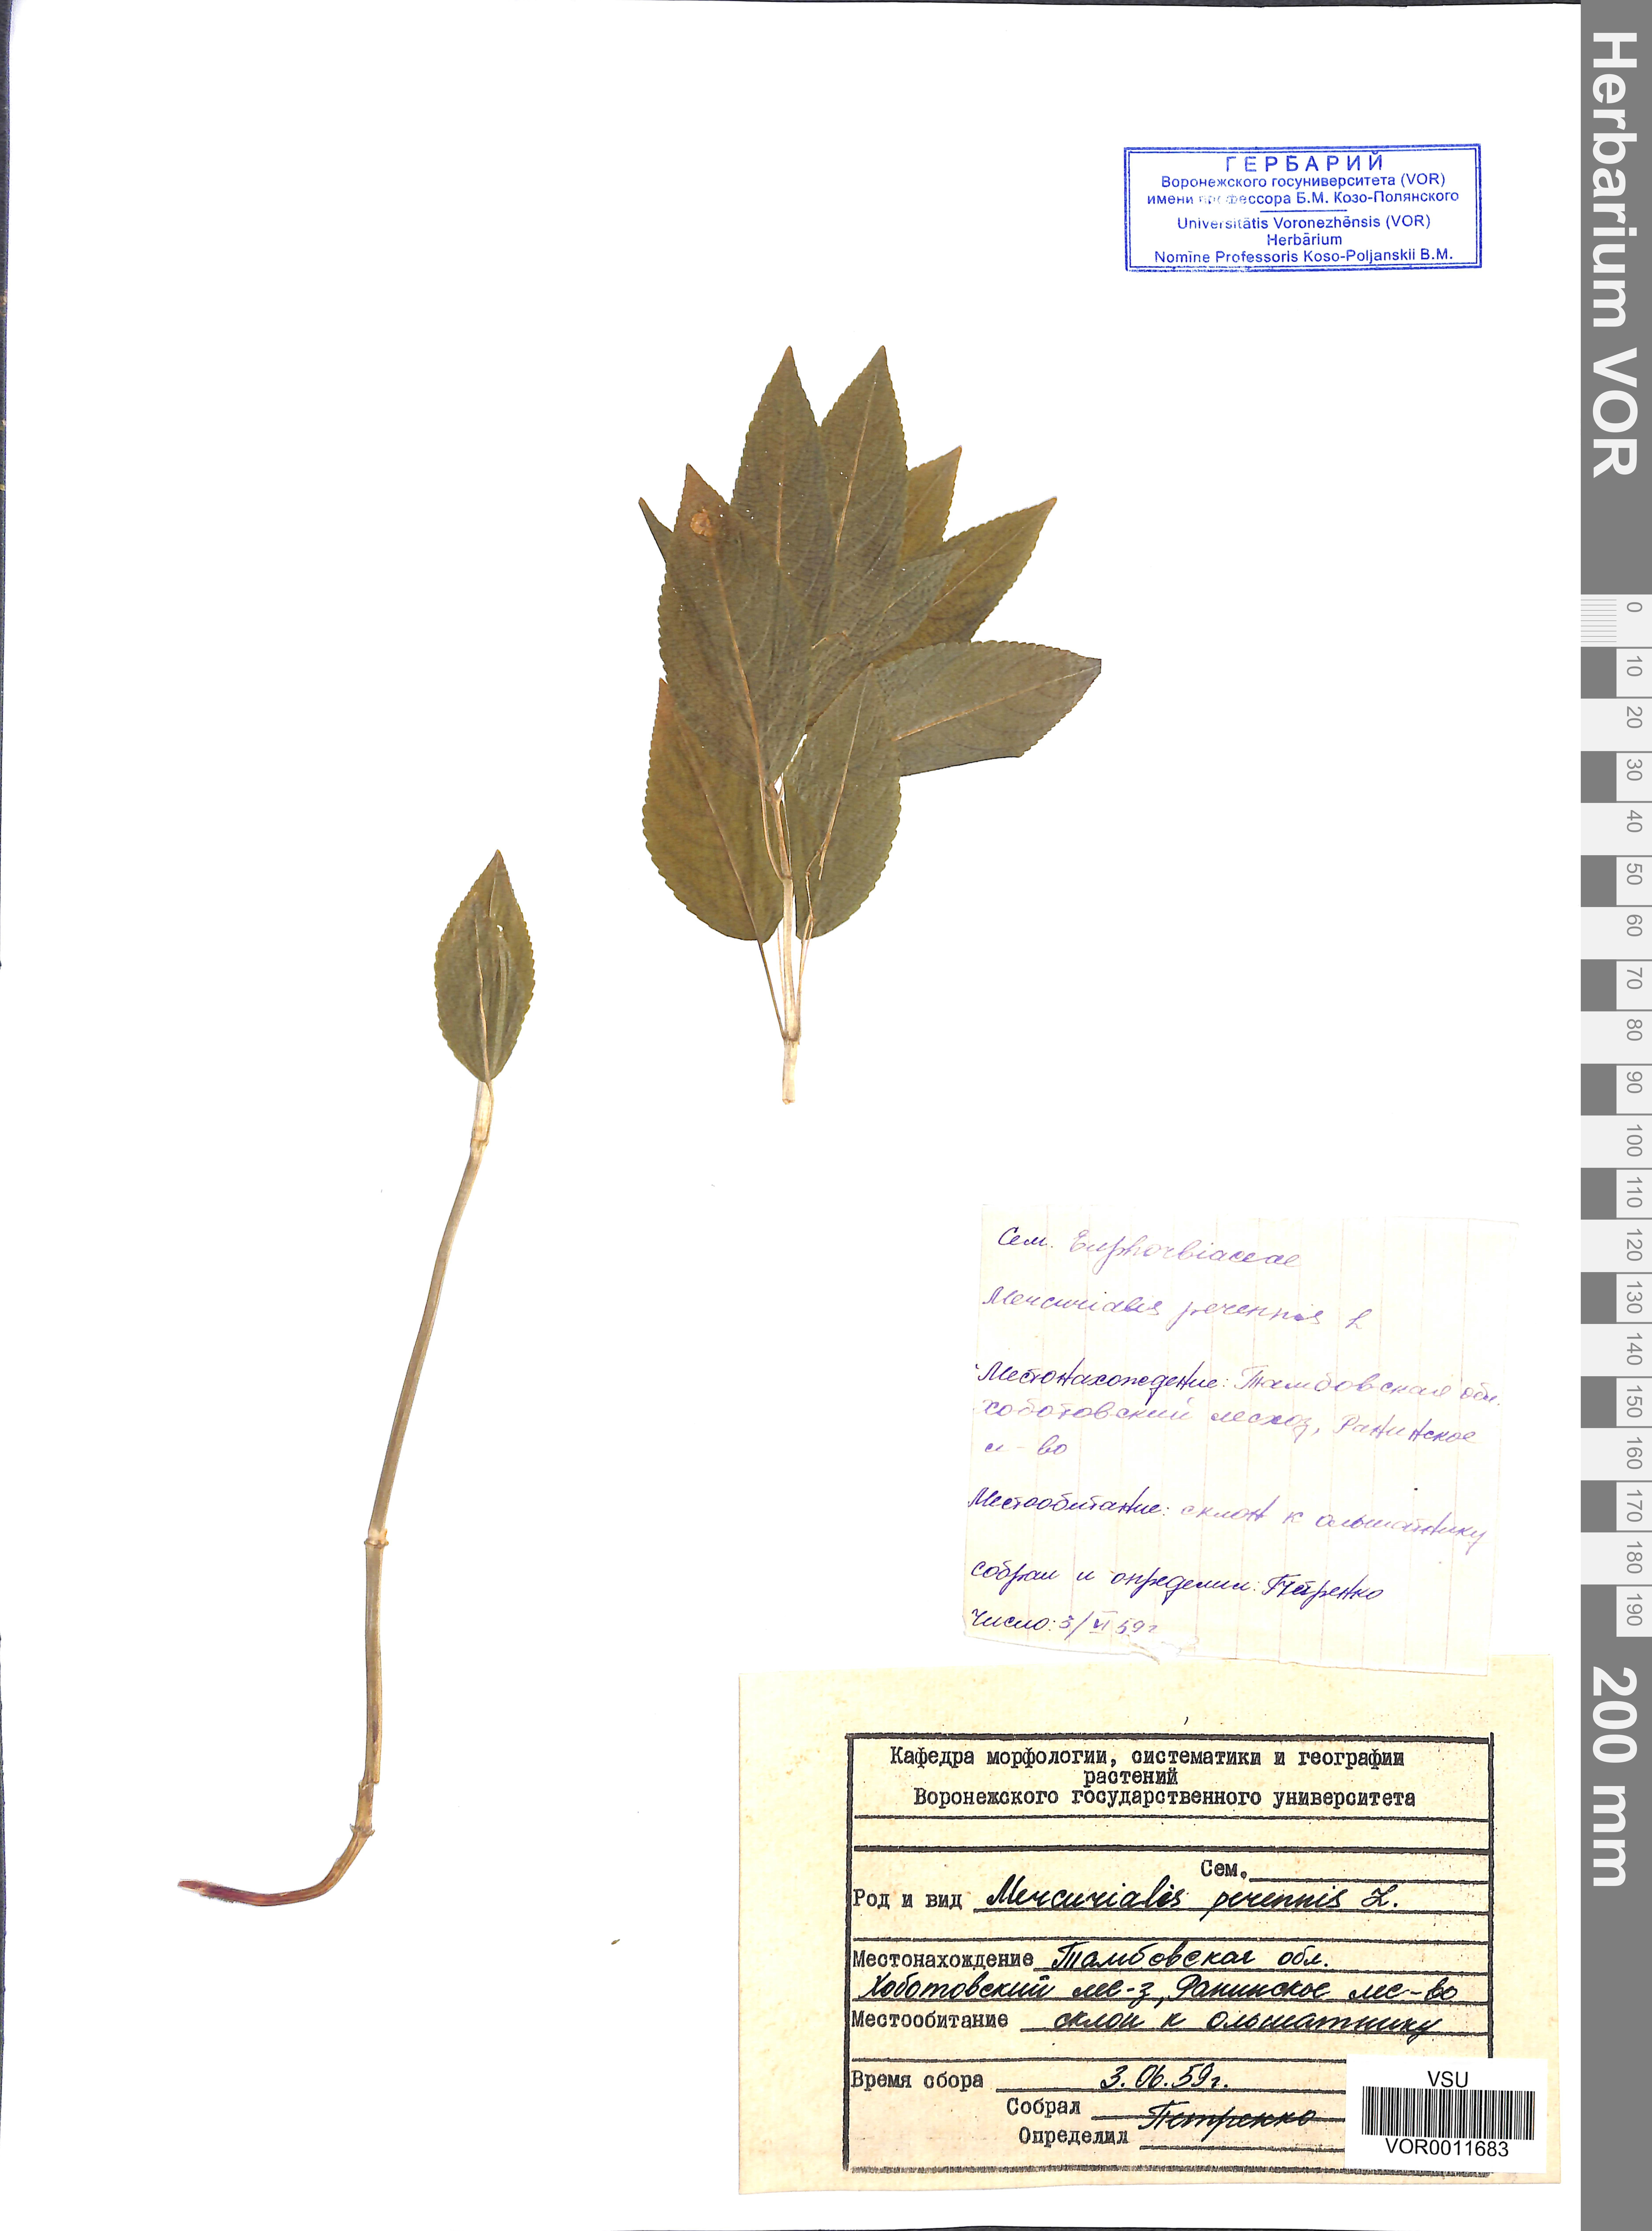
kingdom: Plantae
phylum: Tracheophyta
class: Magnoliopsida
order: Malpighiales
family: Euphorbiaceae
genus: Mercurialis
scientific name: Mercurialis perennis
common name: Dog mercury
